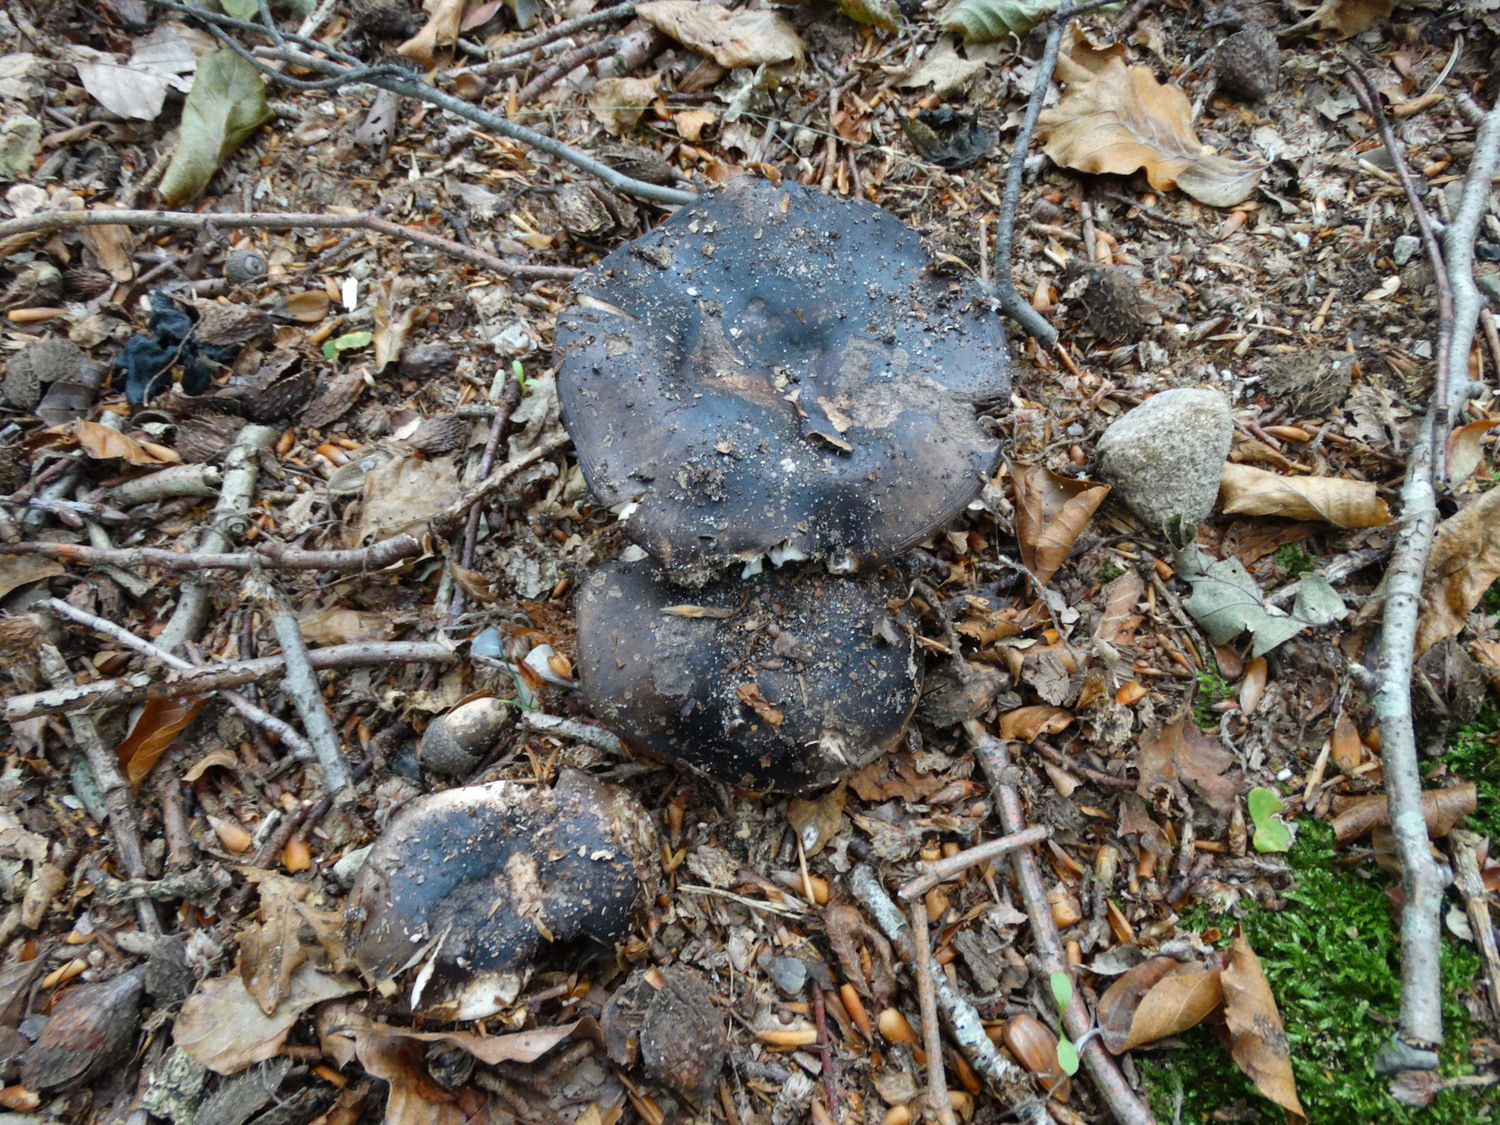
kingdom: Fungi
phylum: Basidiomycota
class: Agaricomycetes
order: Russulales
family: Russulaceae
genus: Russula
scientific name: Russula adusta
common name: sværtende skørhat
